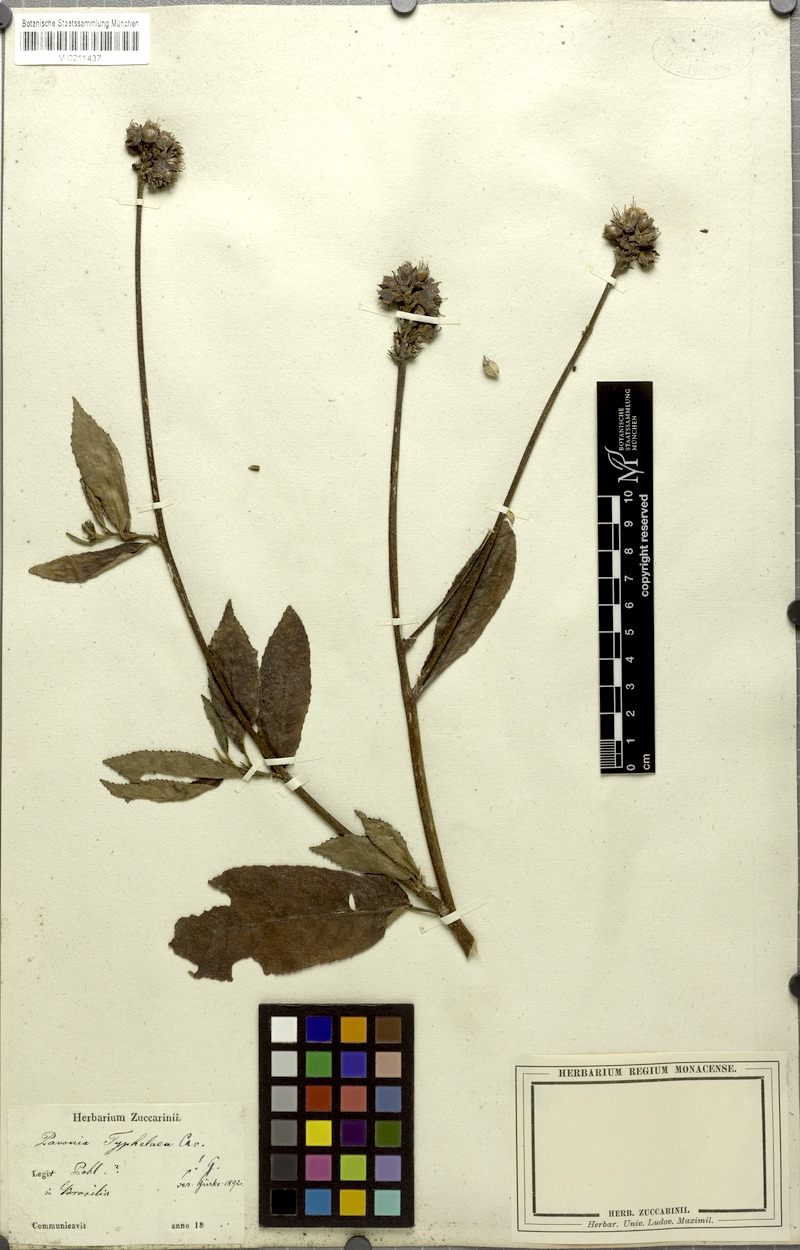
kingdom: Plantae
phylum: Tracheophyta
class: Magnoliopsida
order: Malvales
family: Malvaceae
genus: Pavonia
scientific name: Pavonia fruticosa
